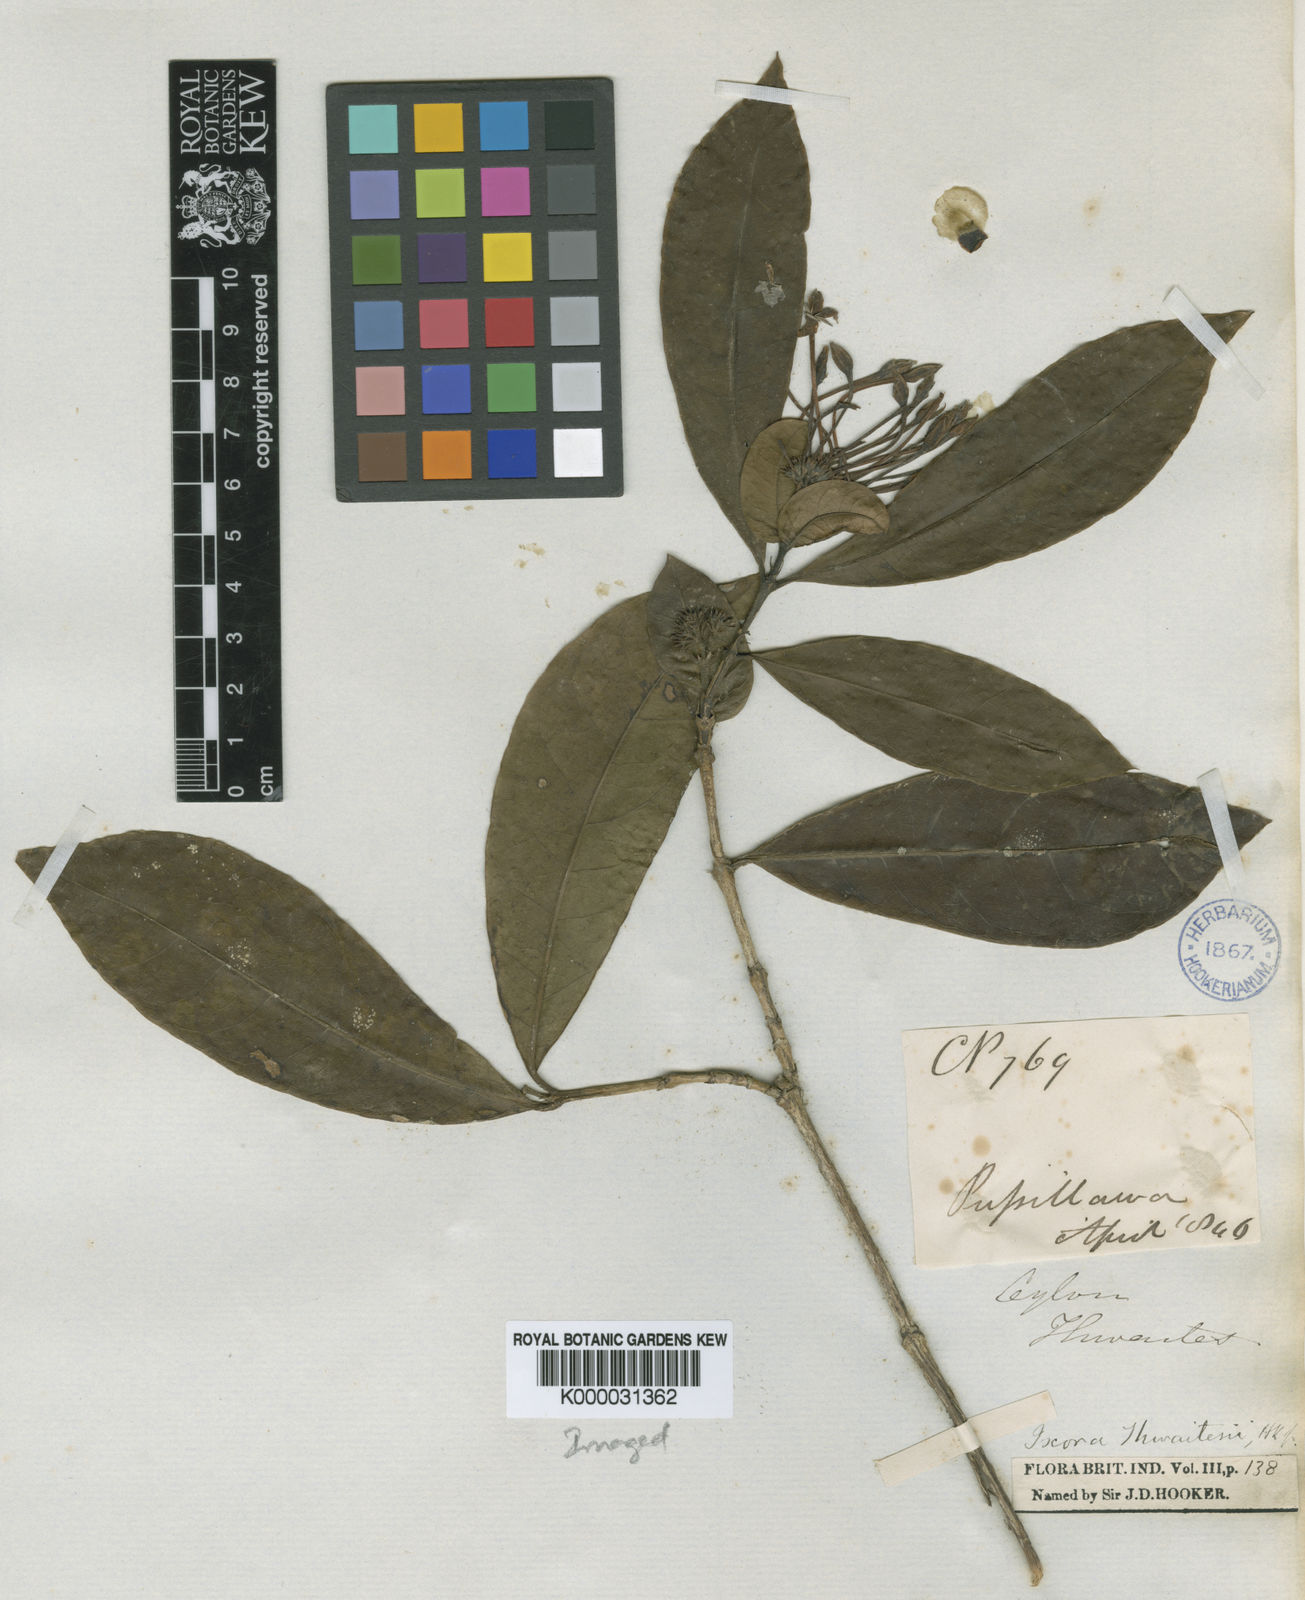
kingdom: Plantae
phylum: Tracheophyta
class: Magnoliopsida
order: Gentianales
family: Rubiaceae
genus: Ixora
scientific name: Ixora thwaitesii
